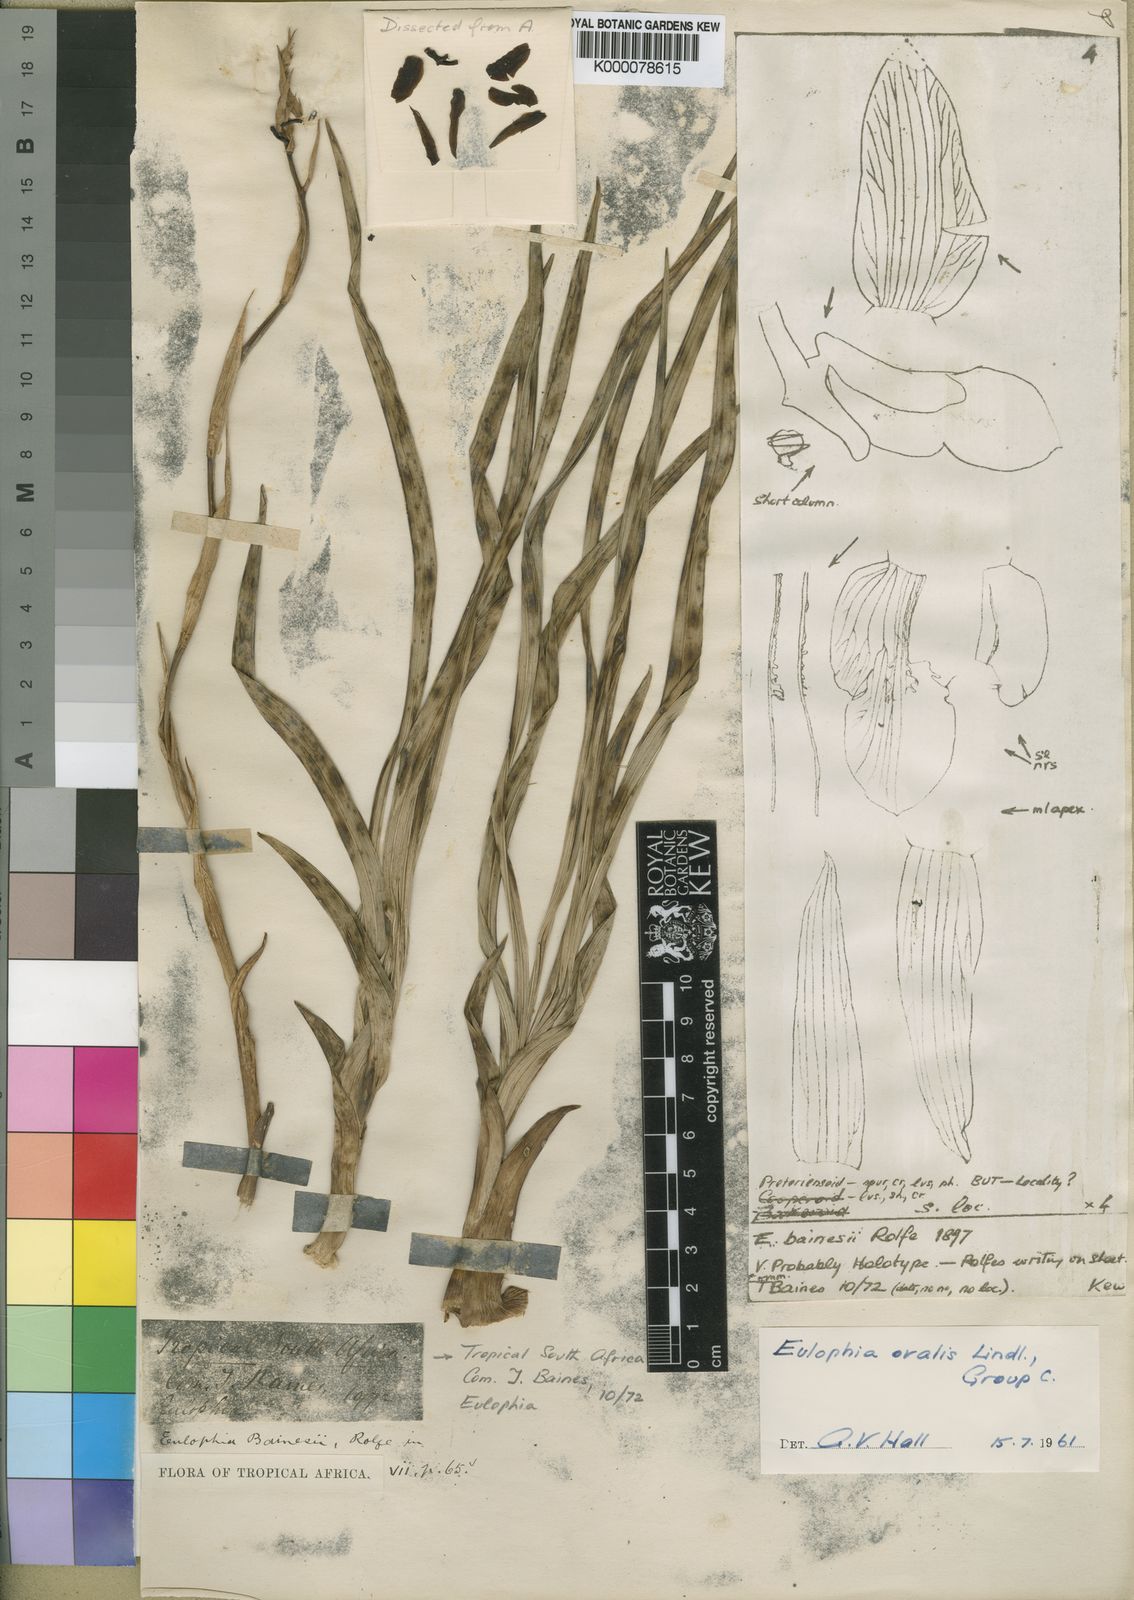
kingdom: Plantae
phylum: Tracheophyta
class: Liliopsida
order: Asparagales
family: Orchidaceae
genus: Eulophia
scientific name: Eulophia ovalis
